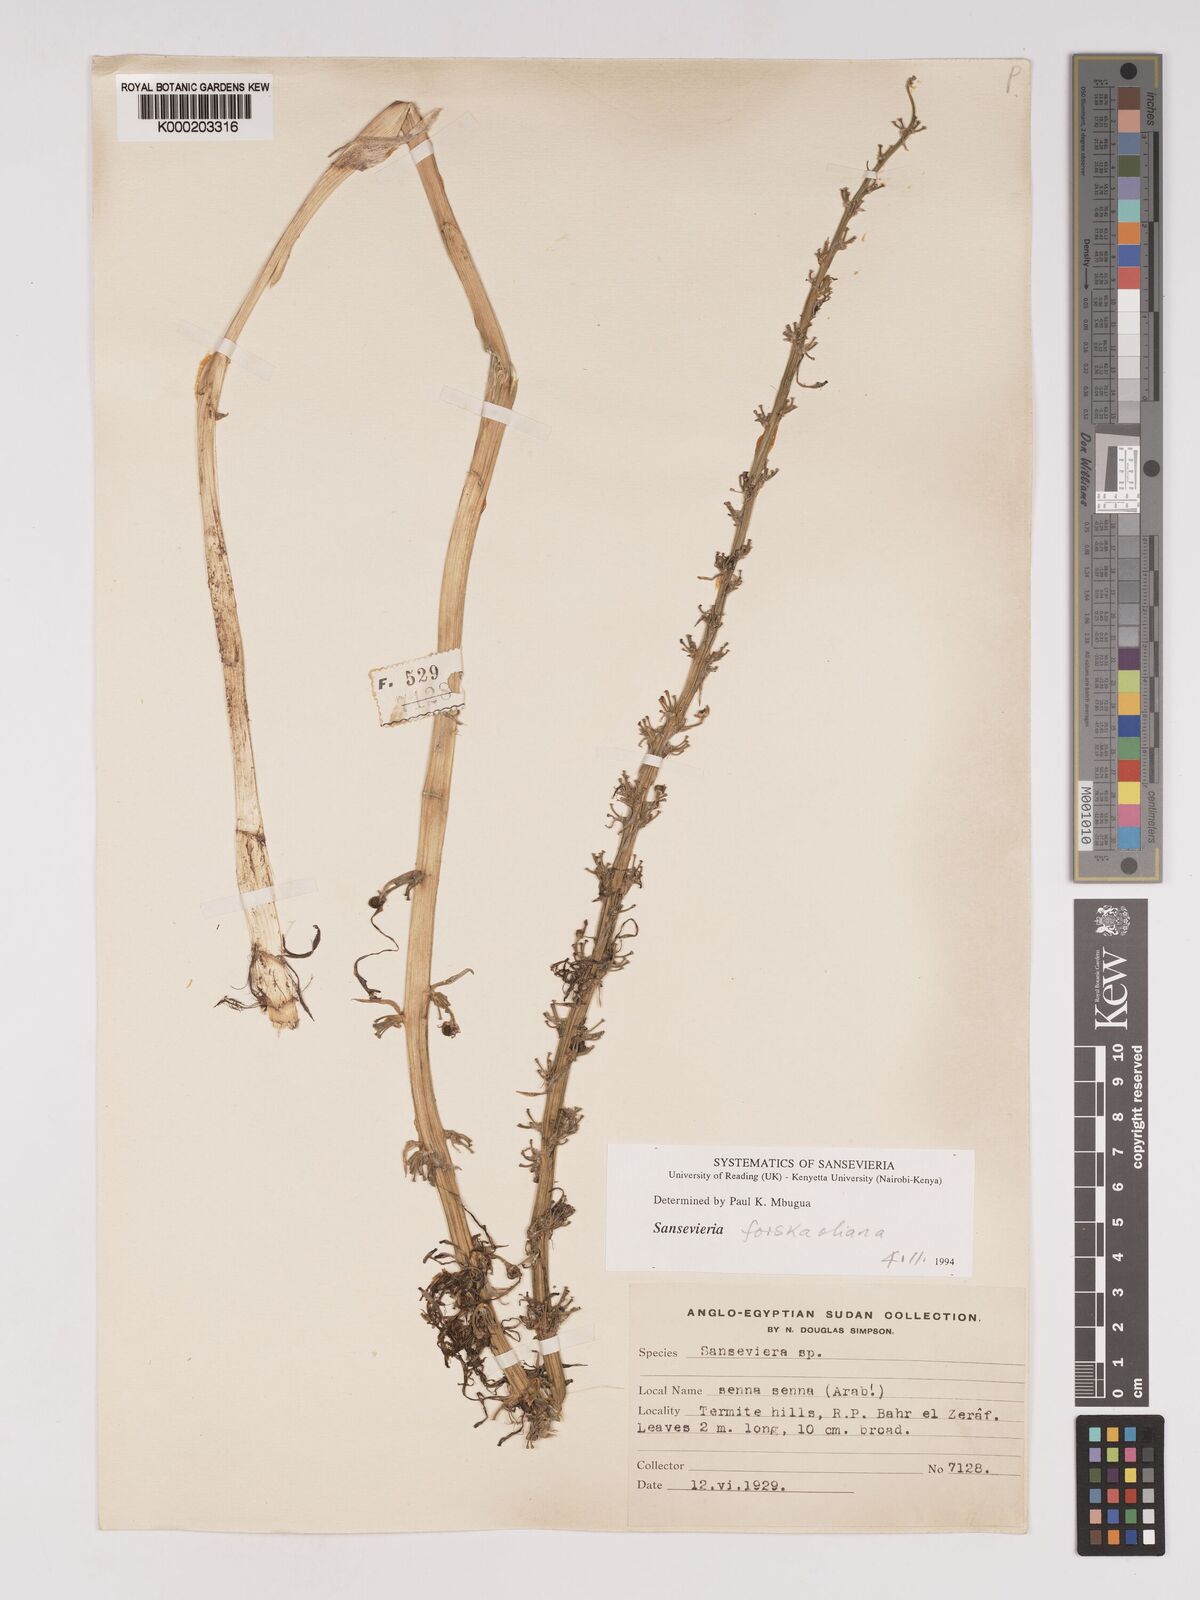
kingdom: Plantae
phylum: Tracheophyta
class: Liliopsida
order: Asparagales
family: Asparagaceae
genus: Dracaena
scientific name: Dracaena
